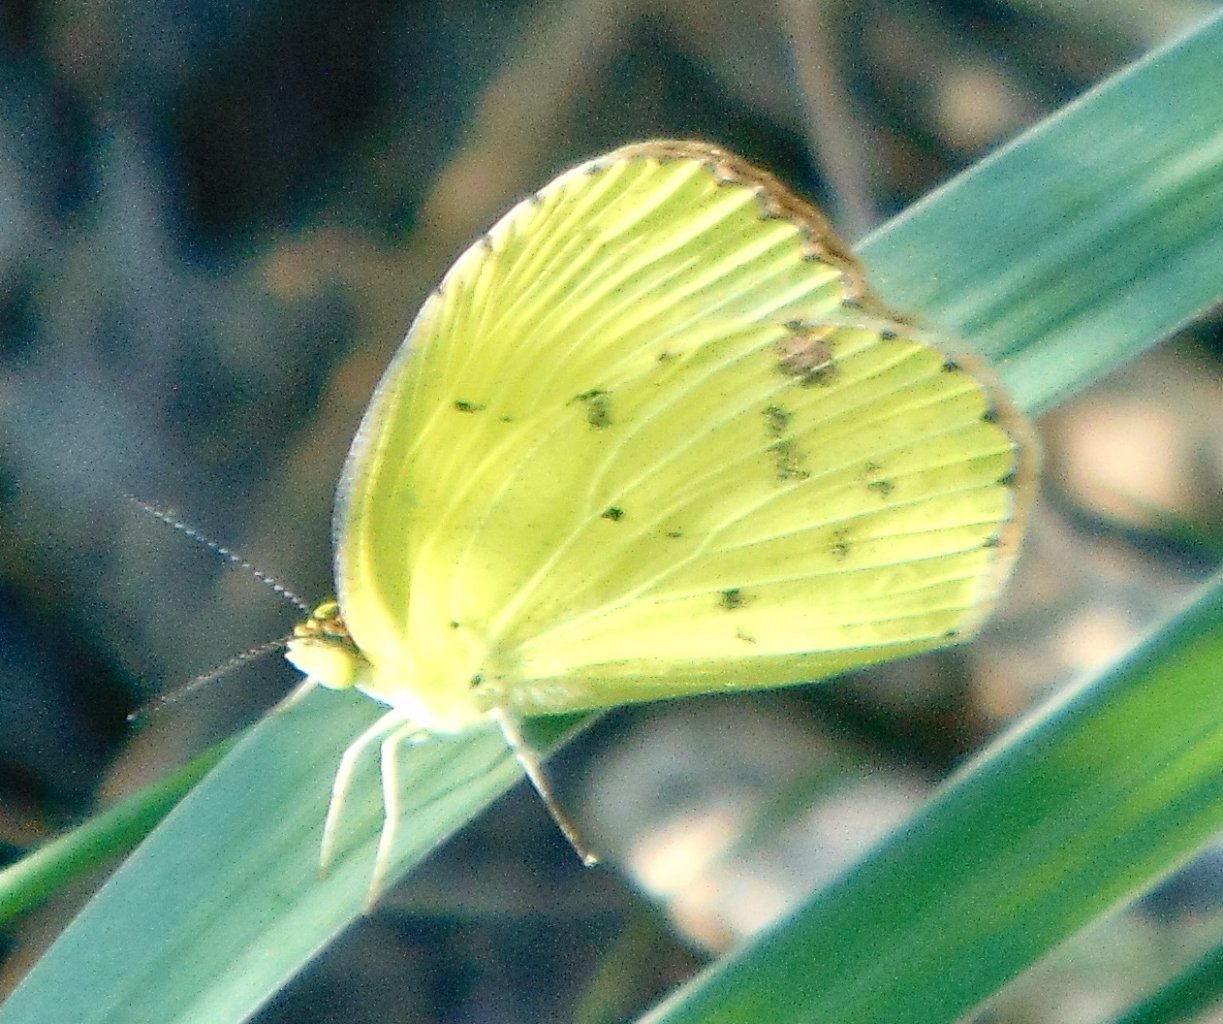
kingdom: Animalia
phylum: Arthropoda
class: Insecta
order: Lepidoptera
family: Pieridae
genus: Pyrisitia
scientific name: Pyrisitia lisa
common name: Little Yellow
